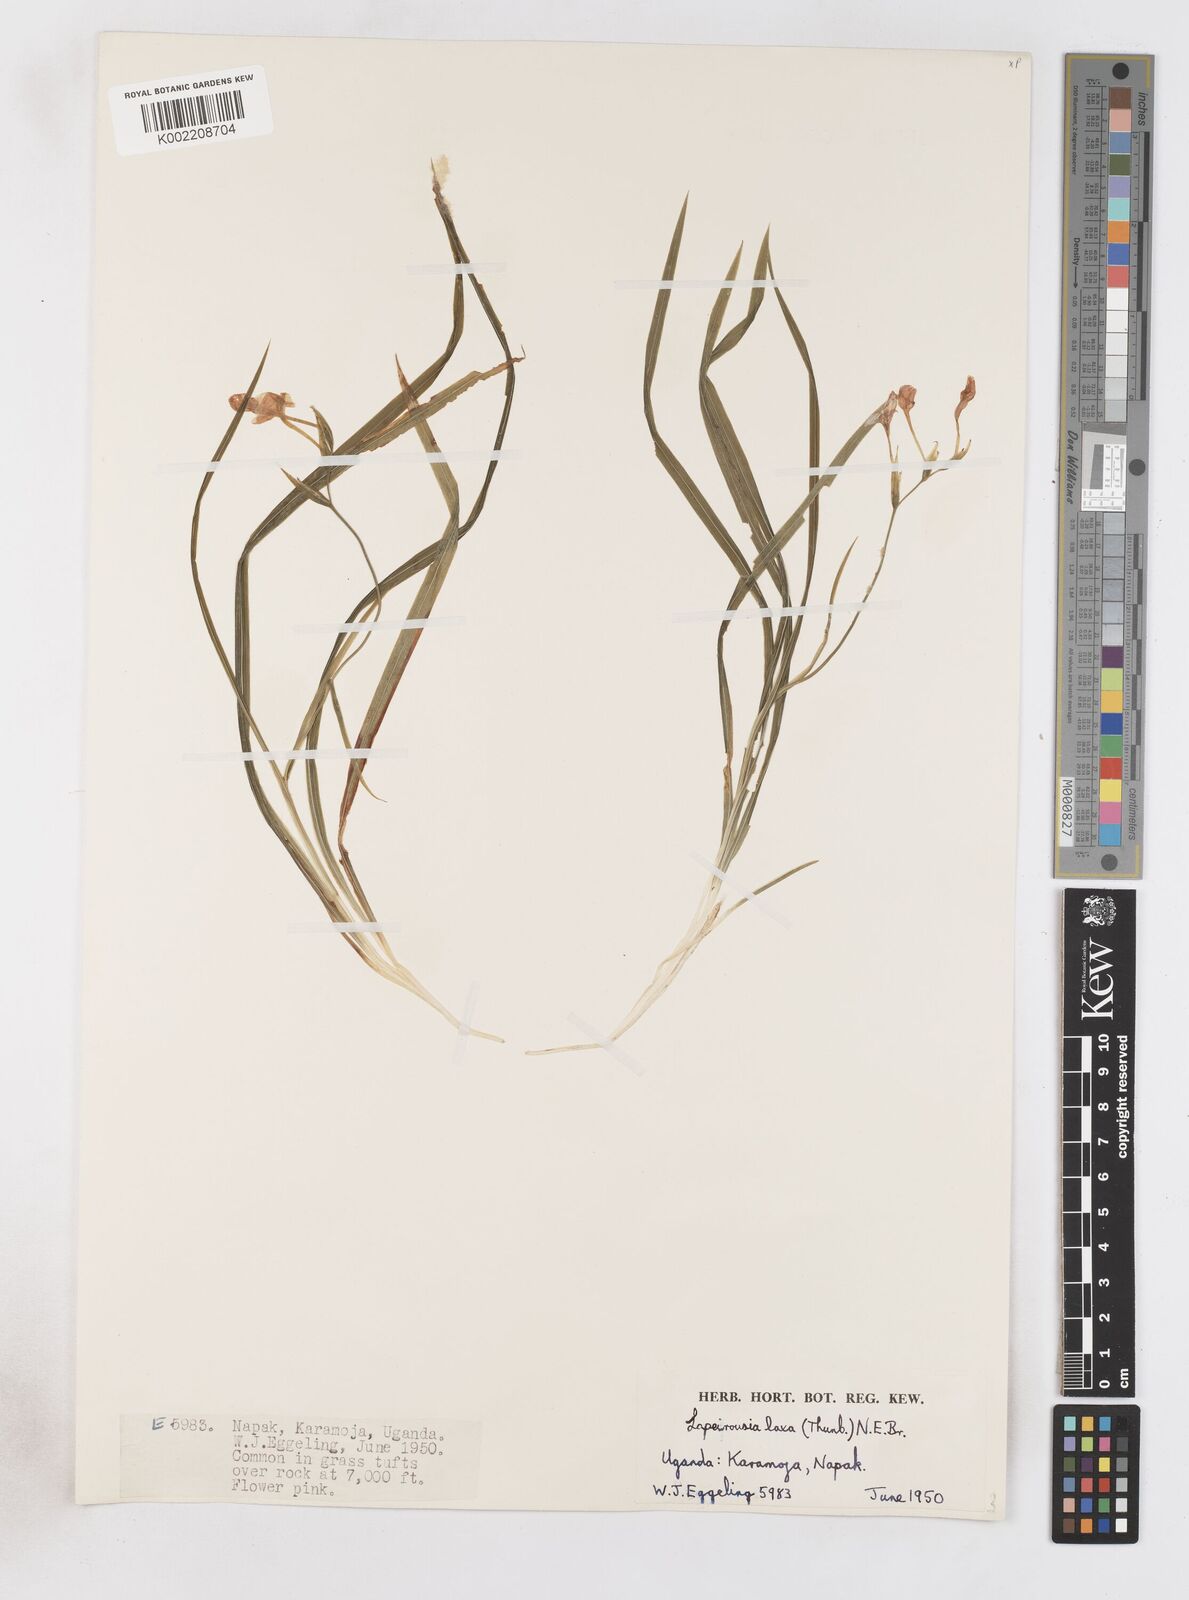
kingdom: Plantae
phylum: Tracheophyta
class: Liliopsida
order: Asparagales
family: Iridaceae
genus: Freesia
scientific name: Freesia laxa
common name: False freesia
